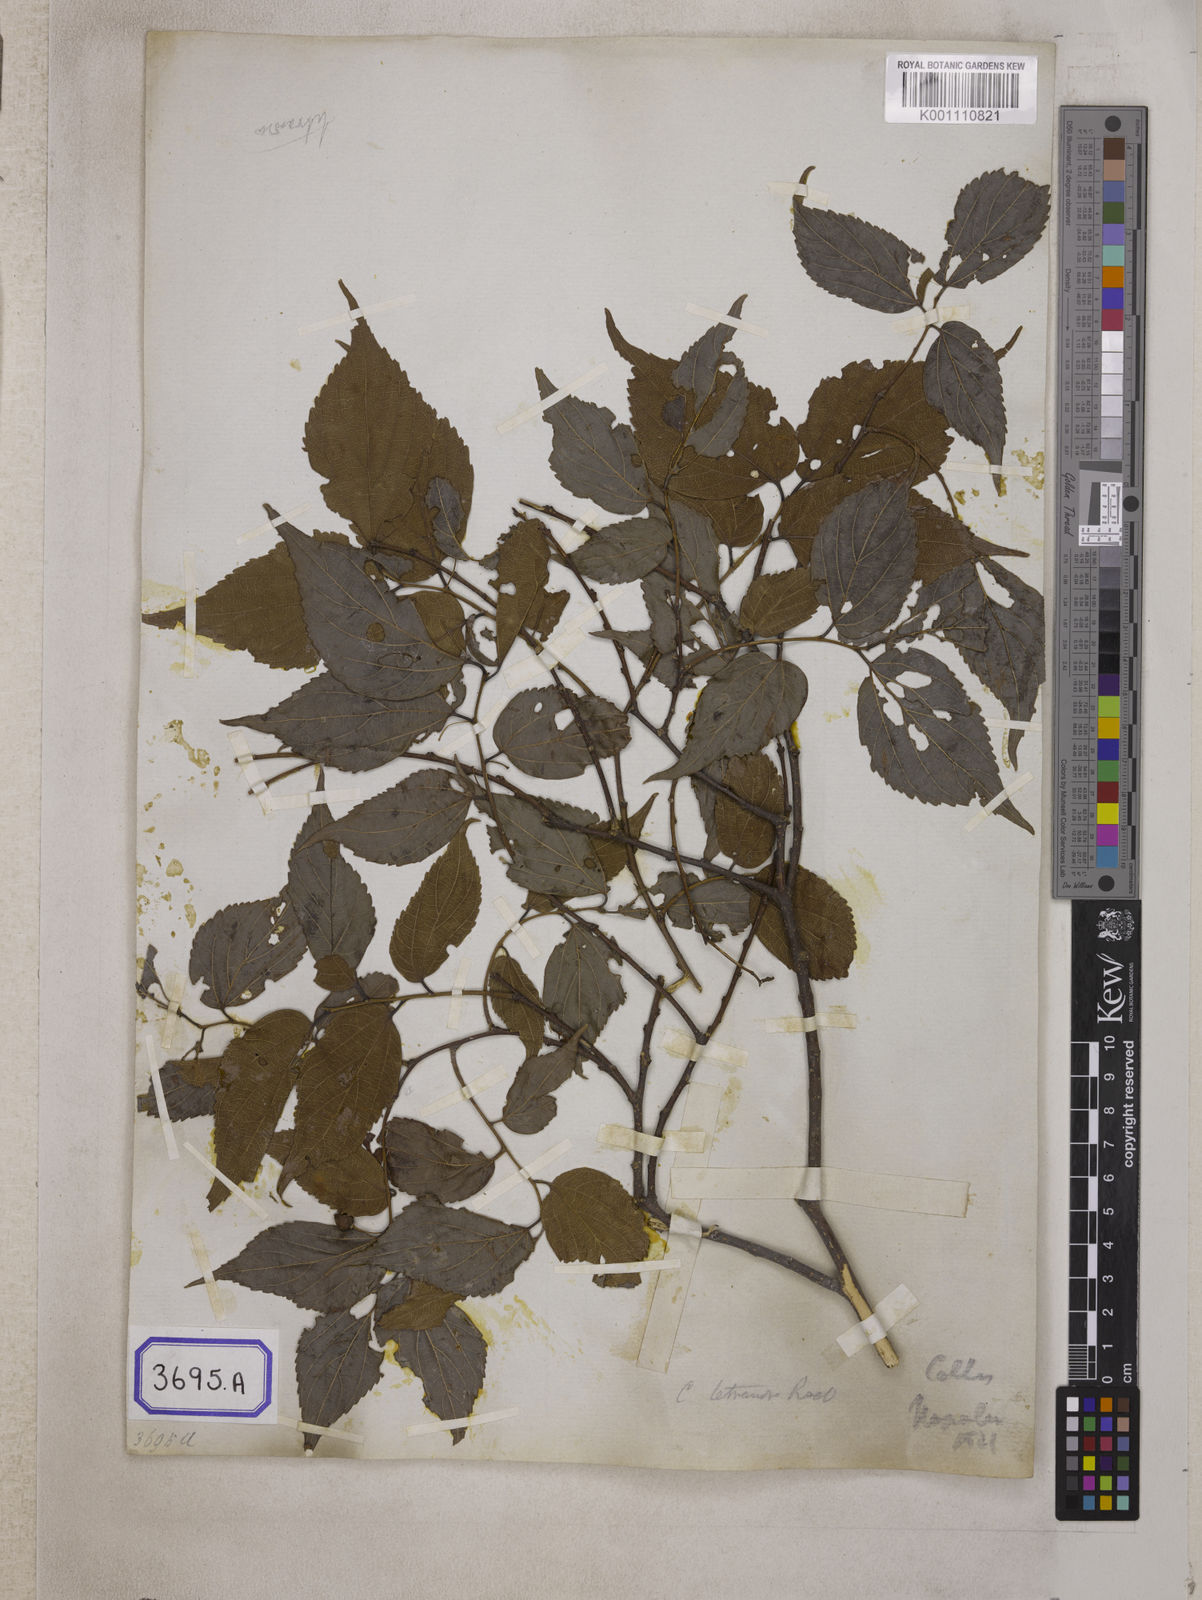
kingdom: Plantae
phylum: Tracheophyta
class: Magnoliopsida
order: Rosales
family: Cannabaceae
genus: Celtis
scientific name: Celtis
